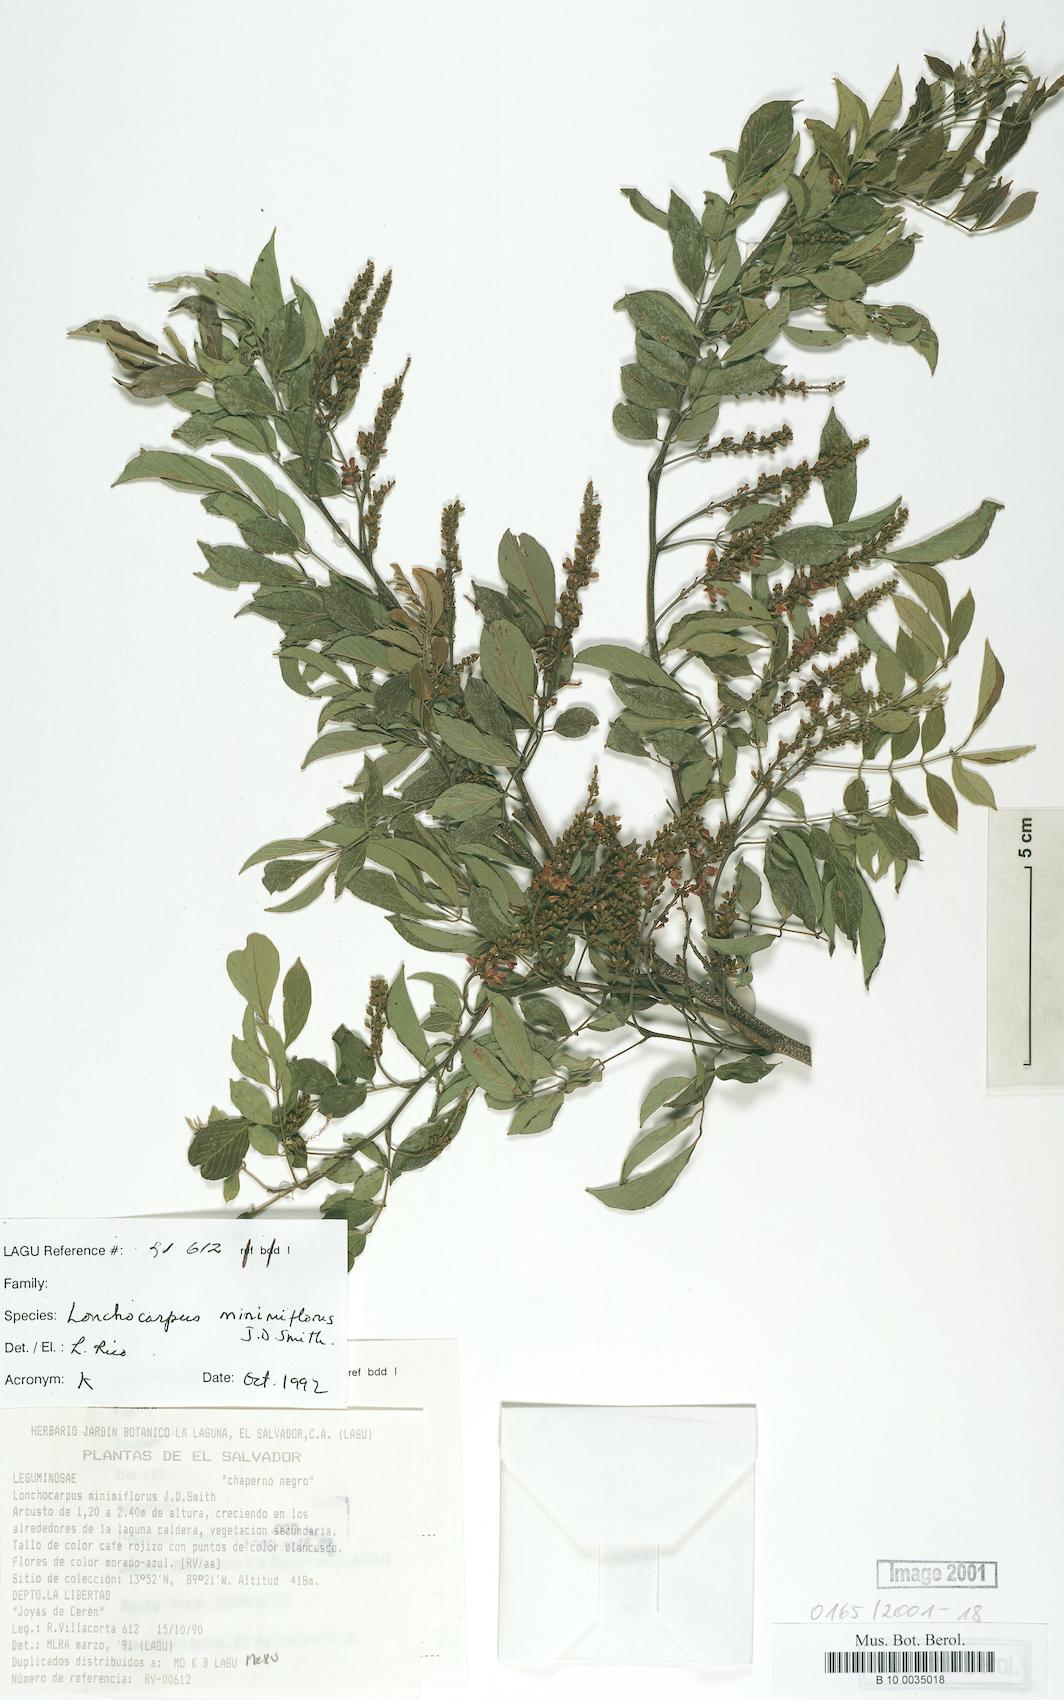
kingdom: Plantae
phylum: Tracheophyta
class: Magnoliopsida
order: Fabales
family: Fabaceae
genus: Lonchocarpus
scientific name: Lonchocarpus minimiflorus
